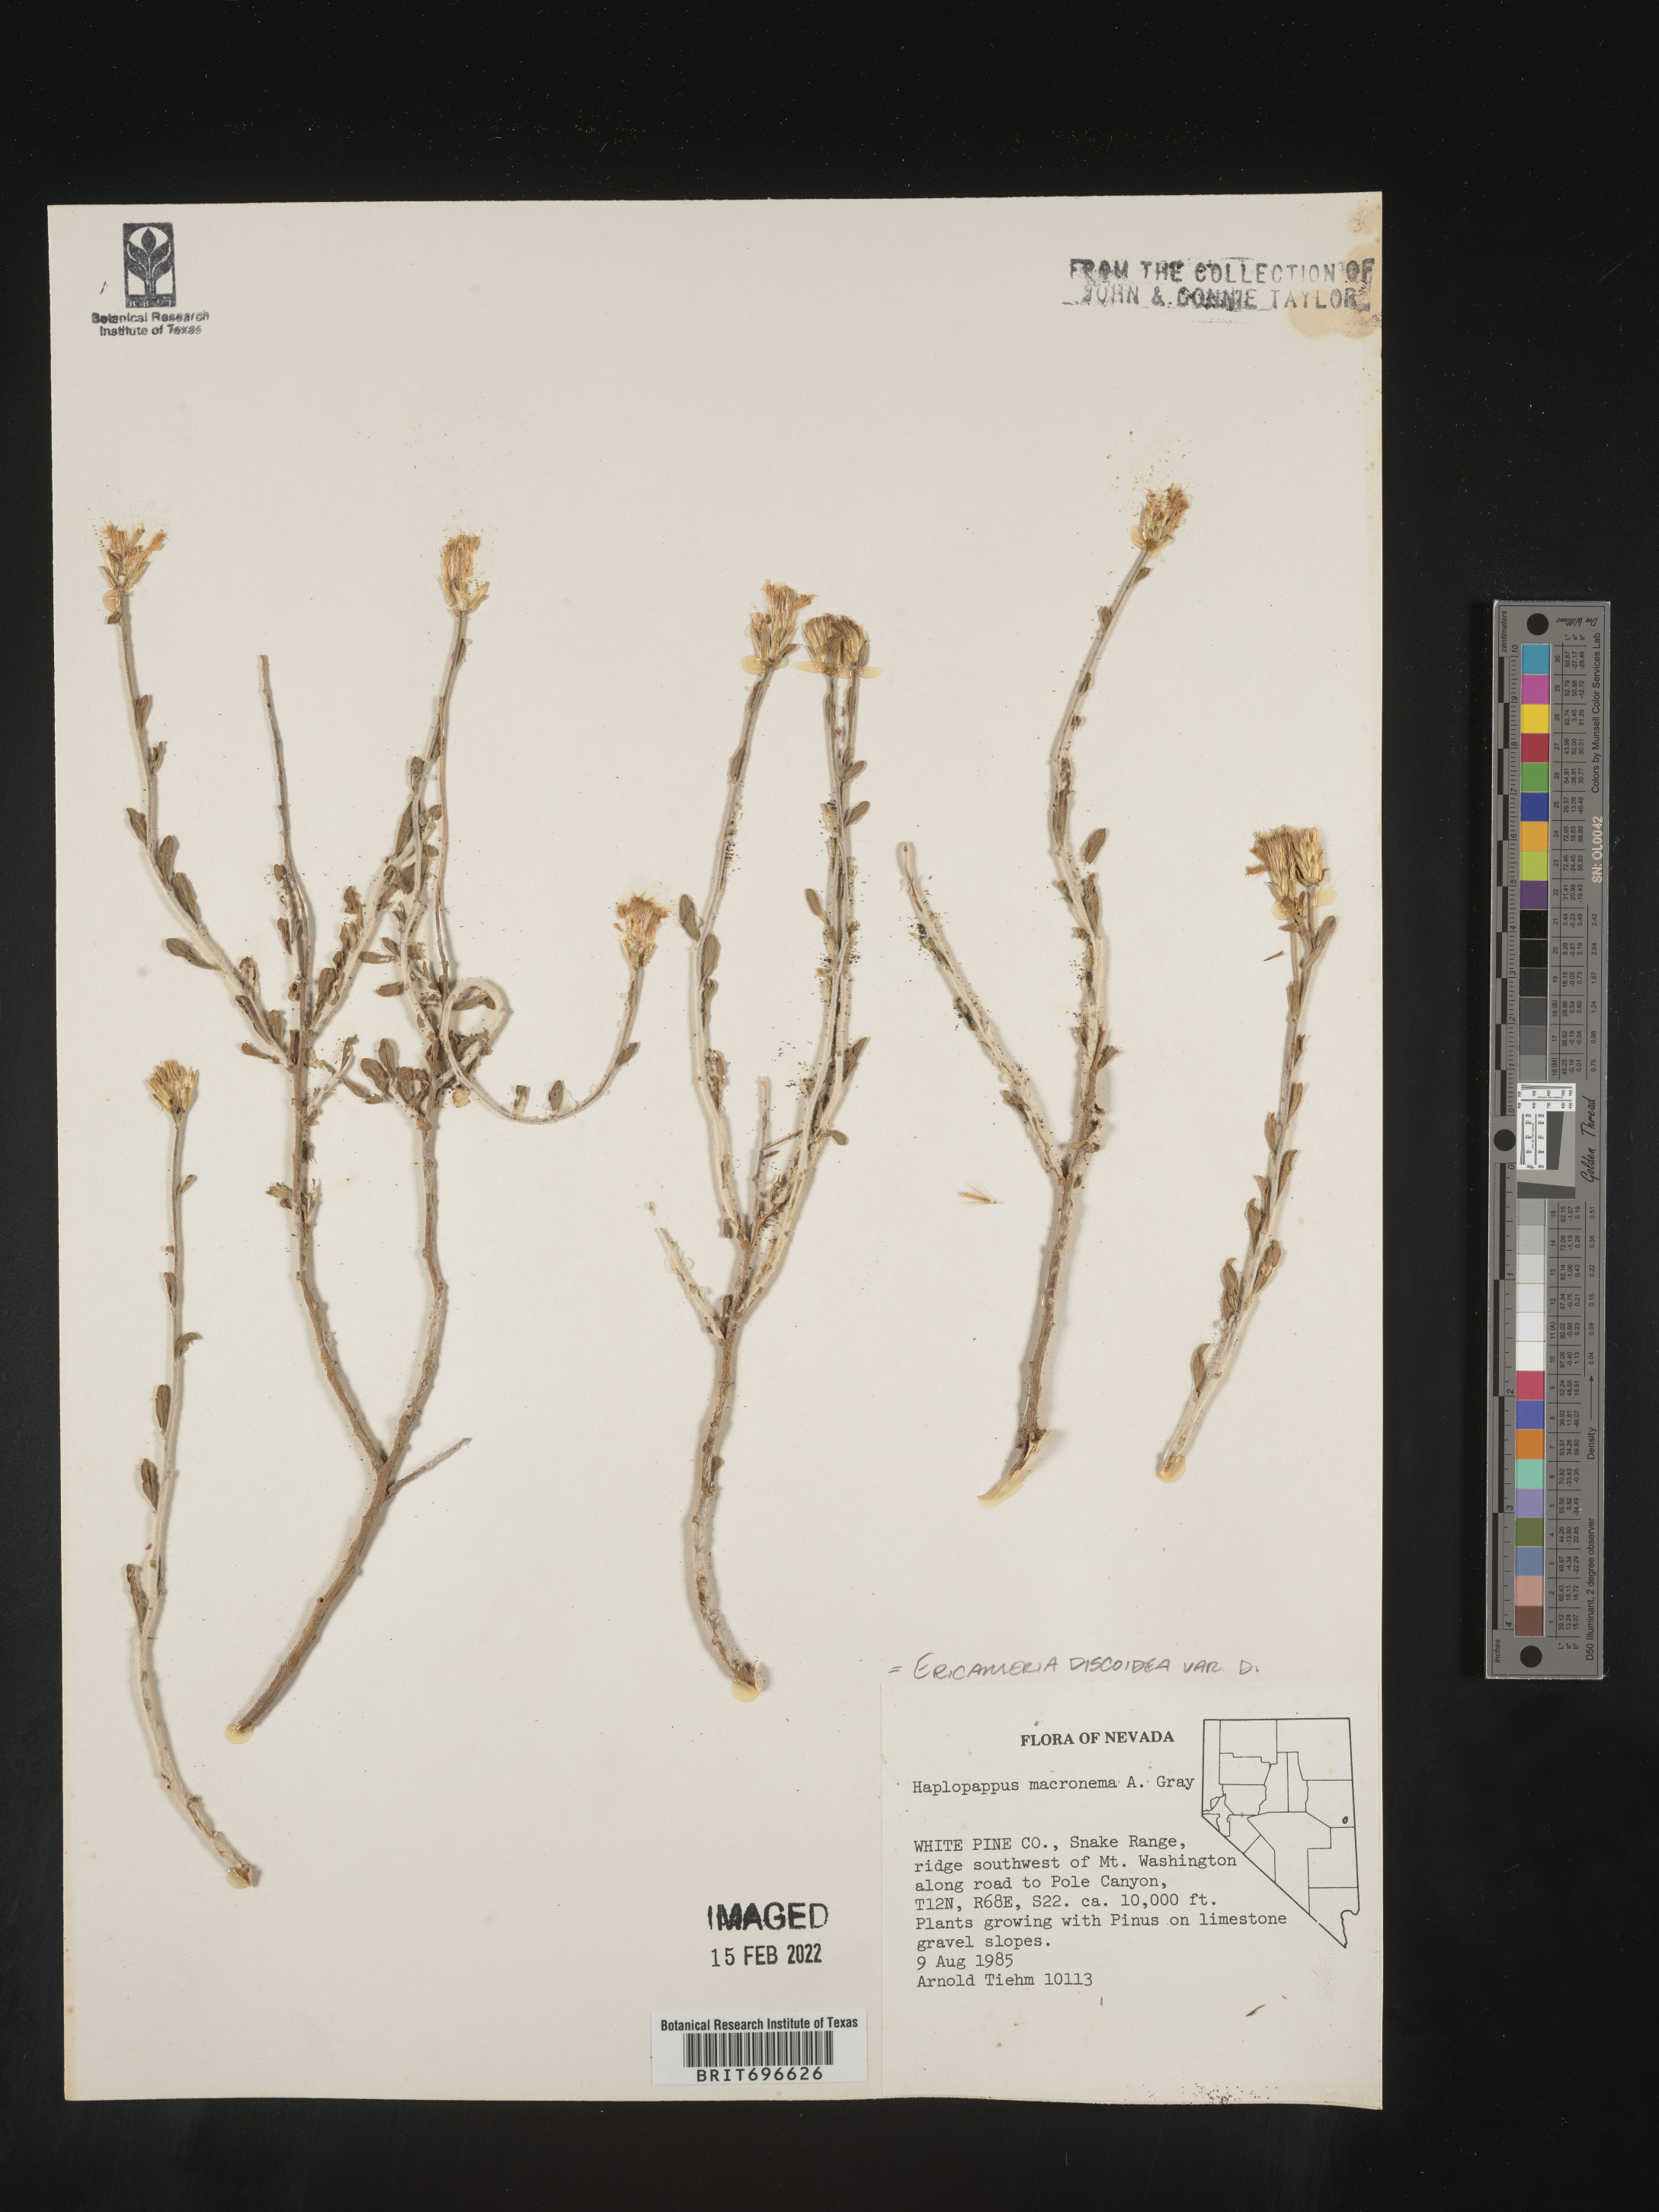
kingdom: Plantae
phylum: Tracheophyta
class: Magnoliopsida
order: Asterales
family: Asteraceae
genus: Ericameria
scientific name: Ericameria discoidea
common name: Sharp-scale goldenweed
